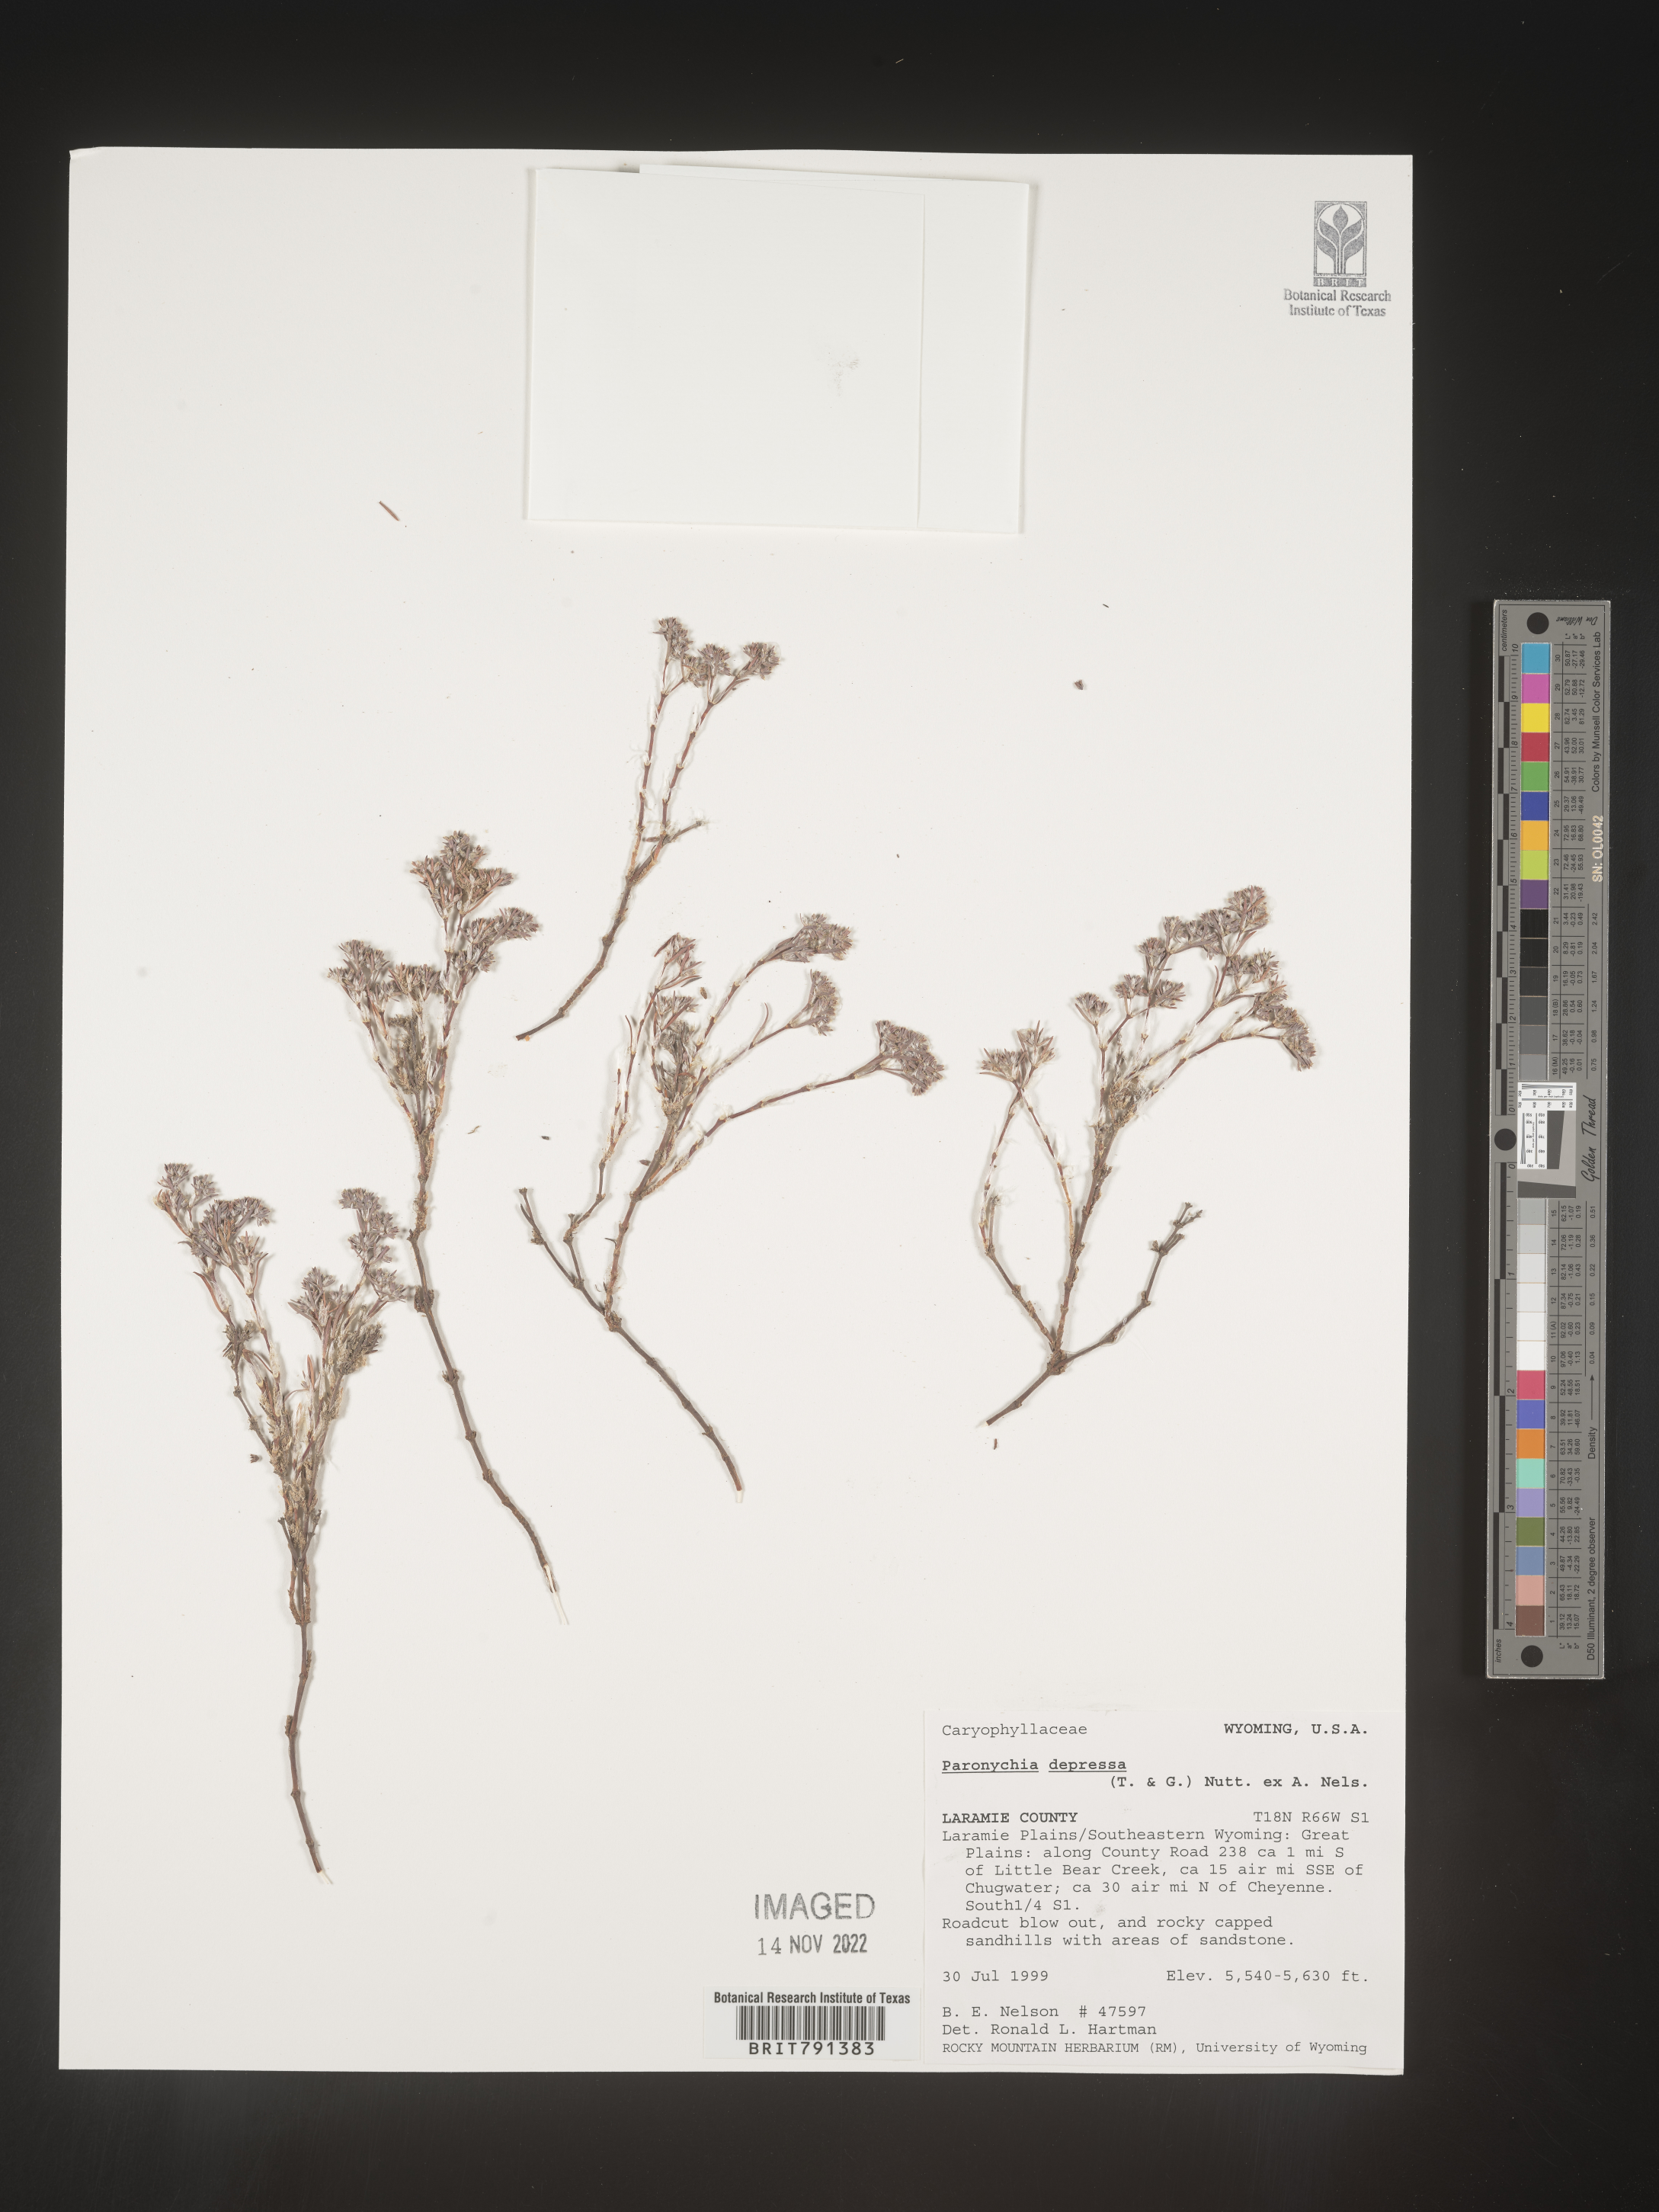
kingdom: Plantae
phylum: Tracheophyta
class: Magnoliopsida
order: Caryophyllales
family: Caryophyllaceae
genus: Paronychia
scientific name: Paronychia
